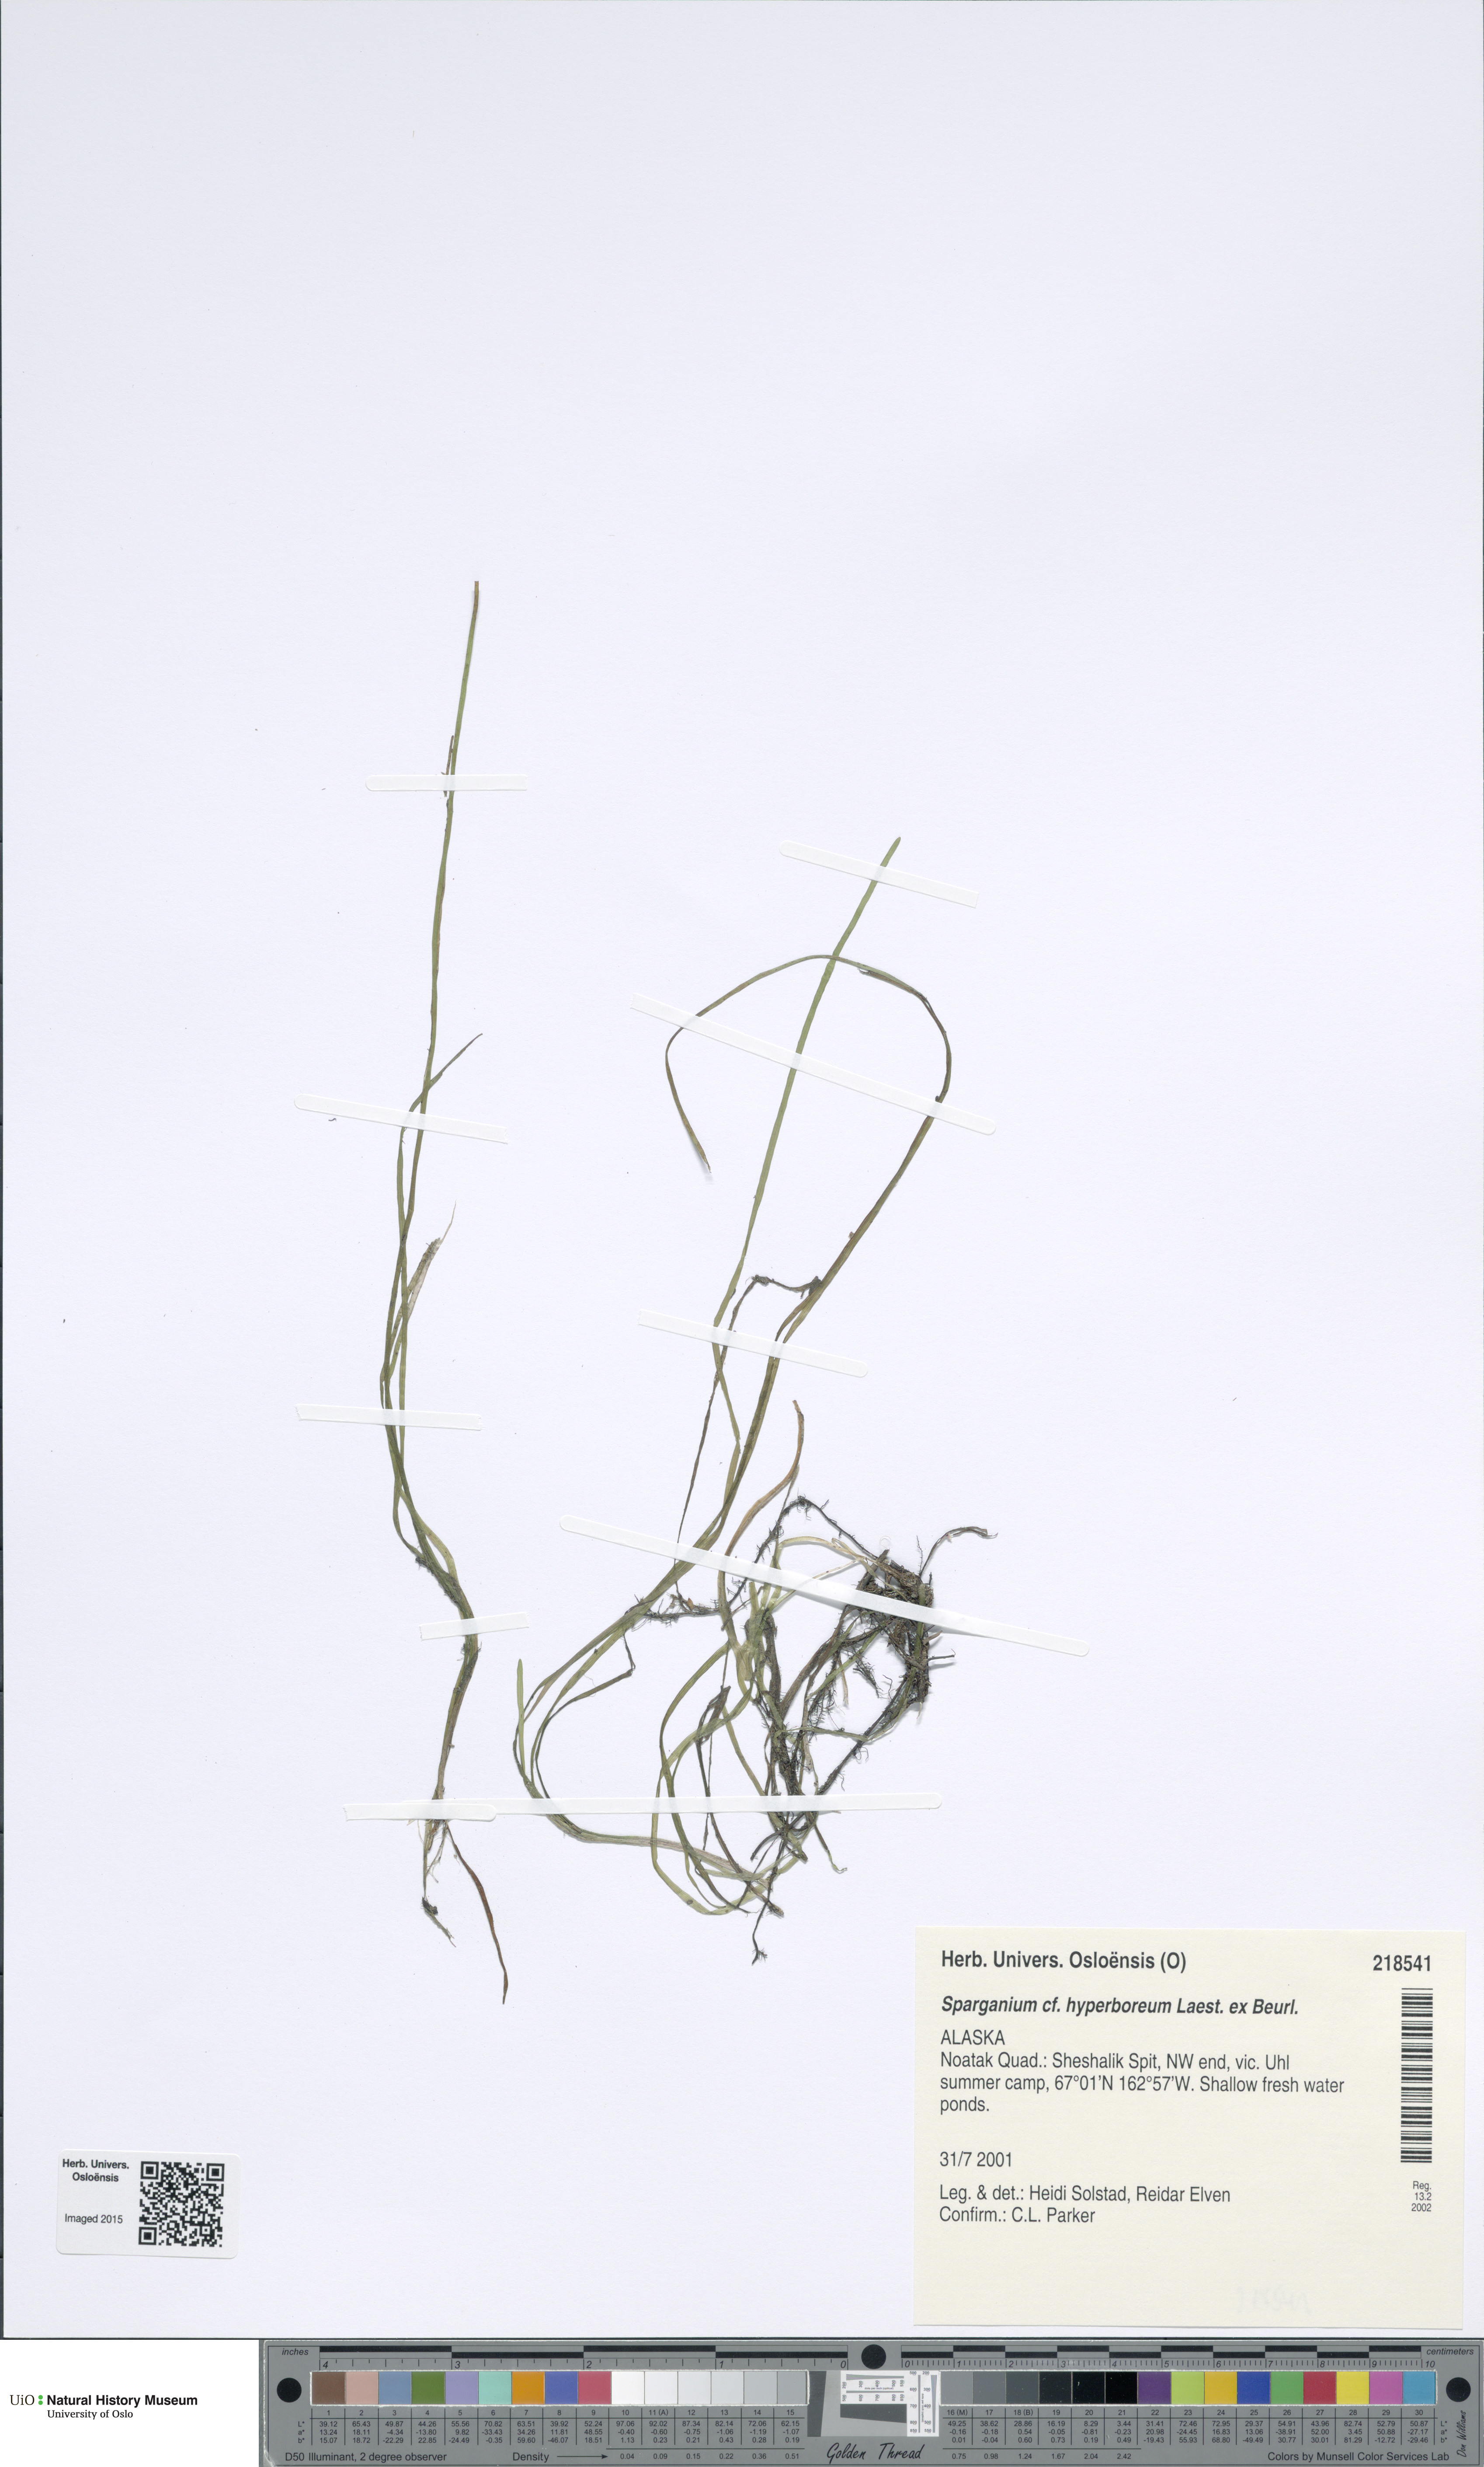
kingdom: Plantae
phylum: Tracheophyta
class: Liliopsida
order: Poales
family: Typhaceae
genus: Sparganium
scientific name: Sparganium hyperboreum
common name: Arctic burreed
